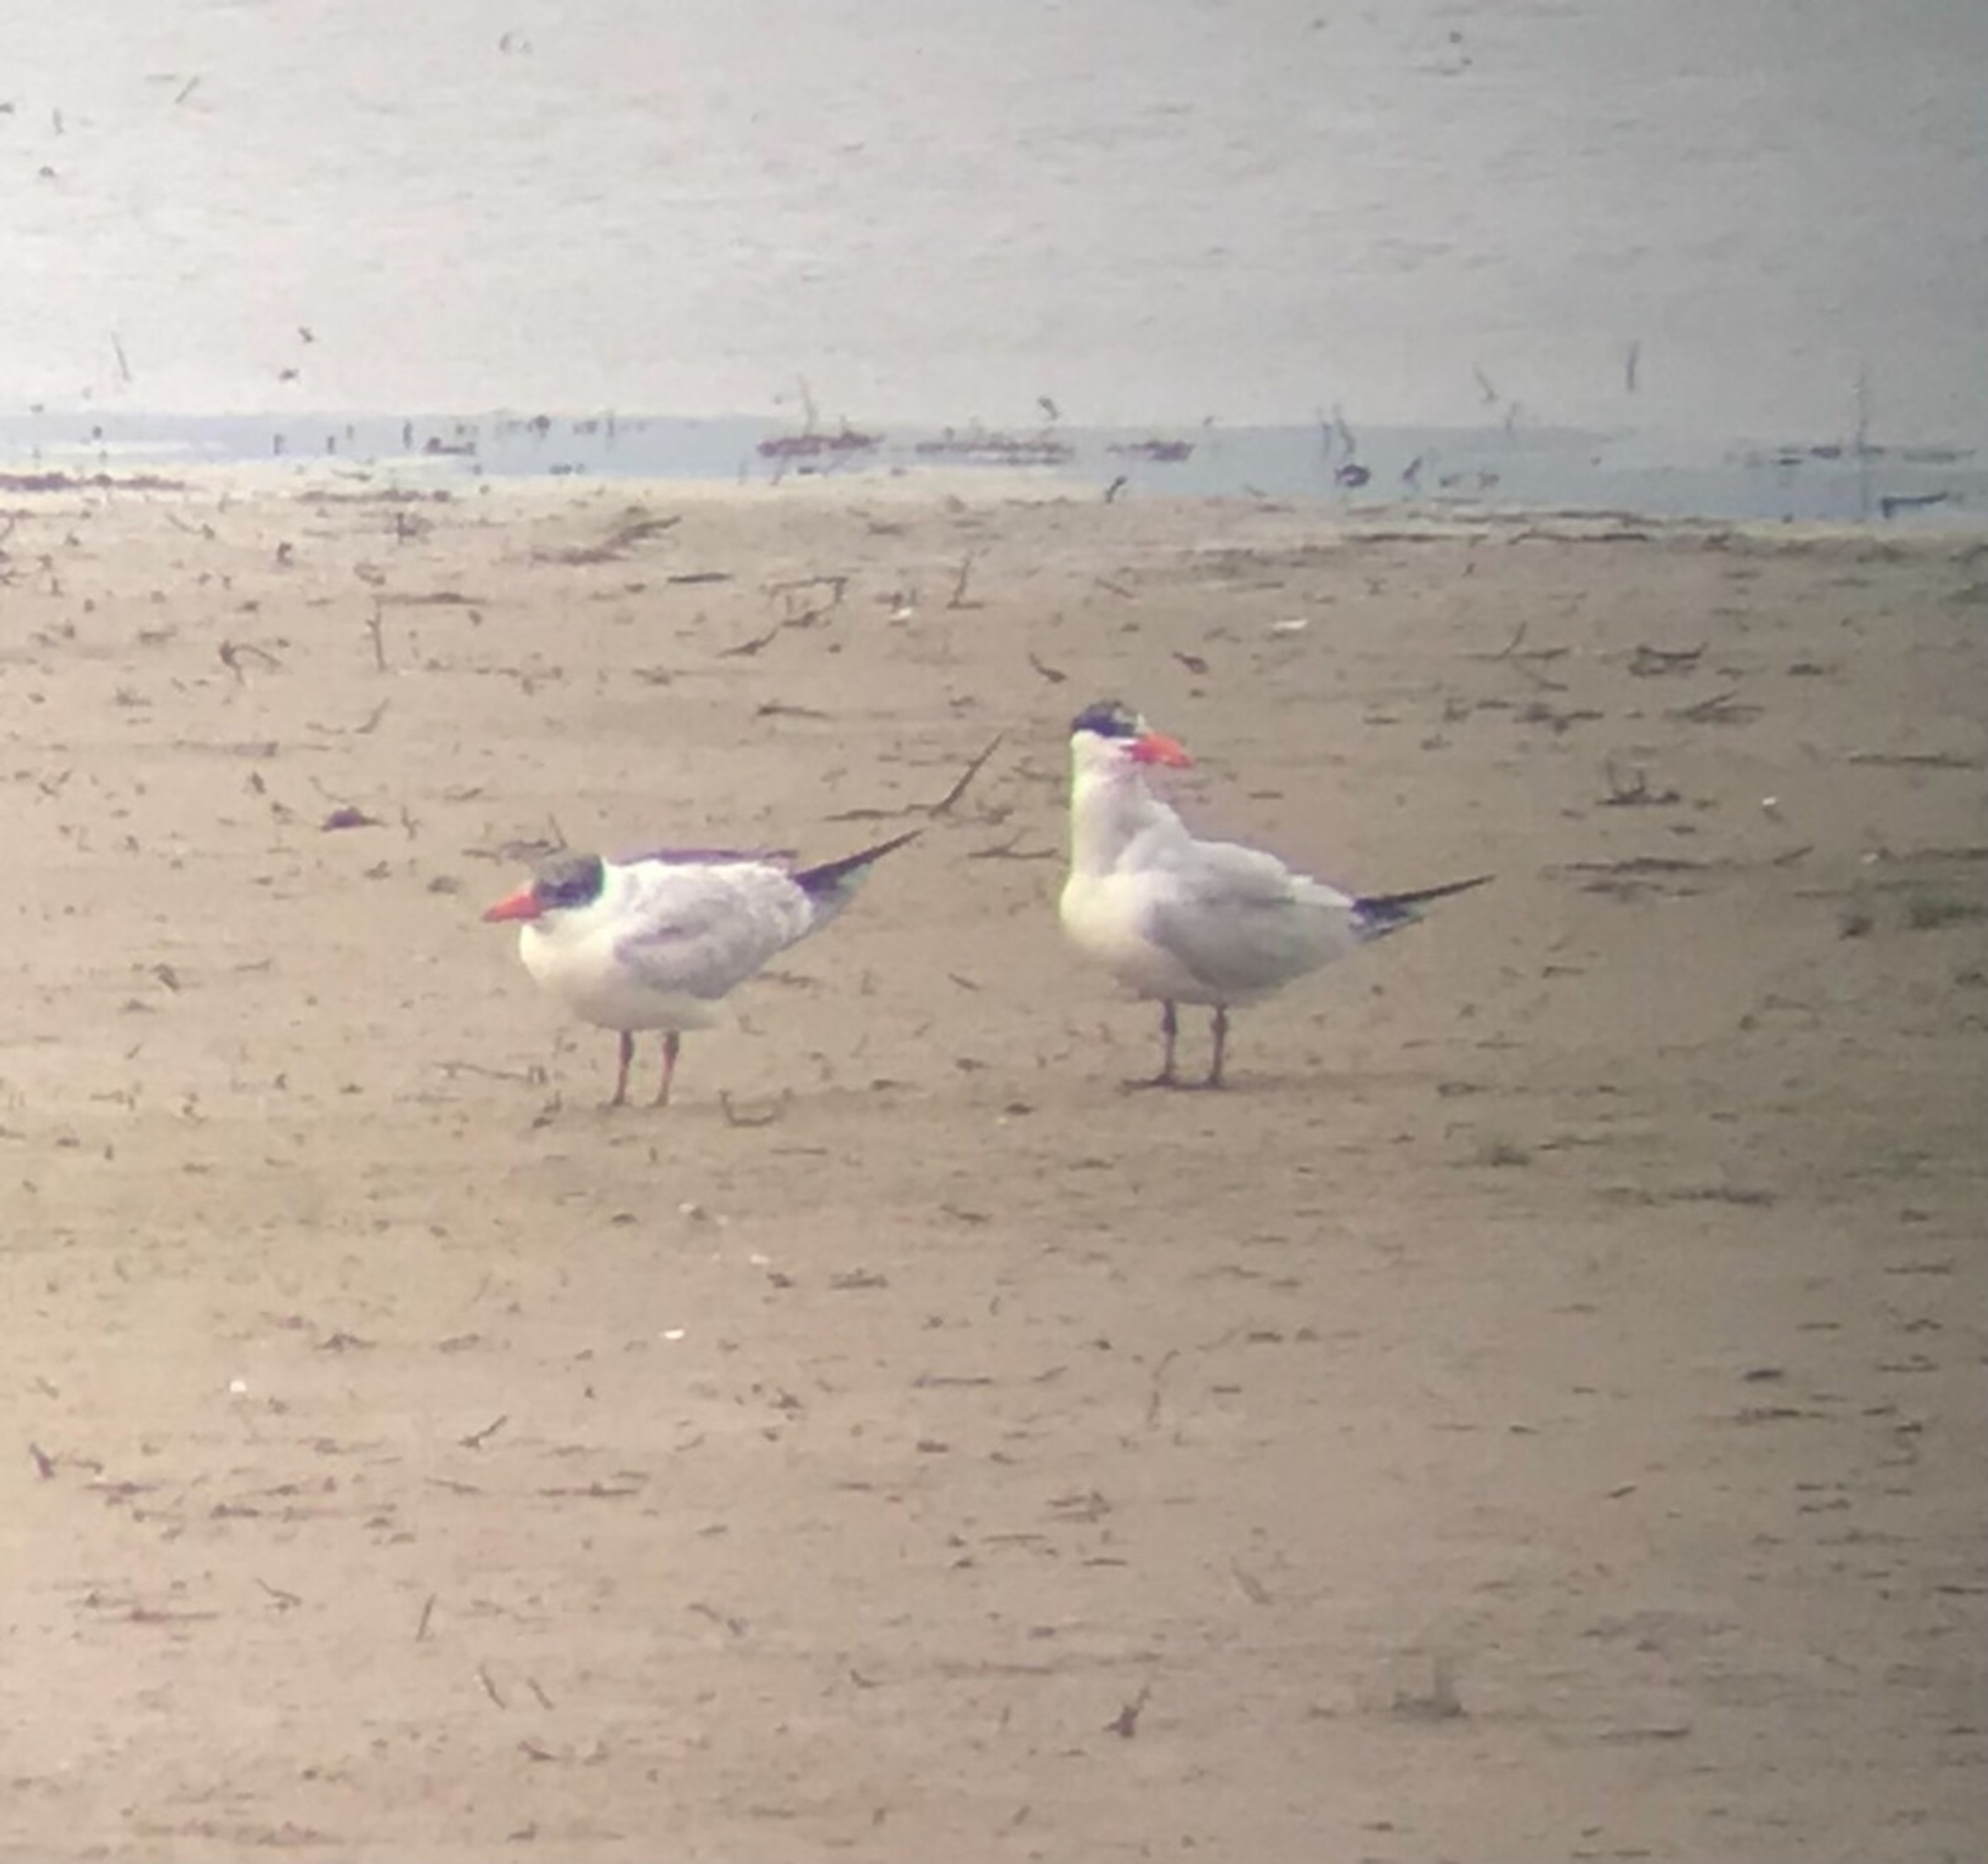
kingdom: Animalia
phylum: Chordata
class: Aves
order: Charadriiformes
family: Laridae
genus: Hydroprogne
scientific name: Hydroprogne caspia
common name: Rovterne
